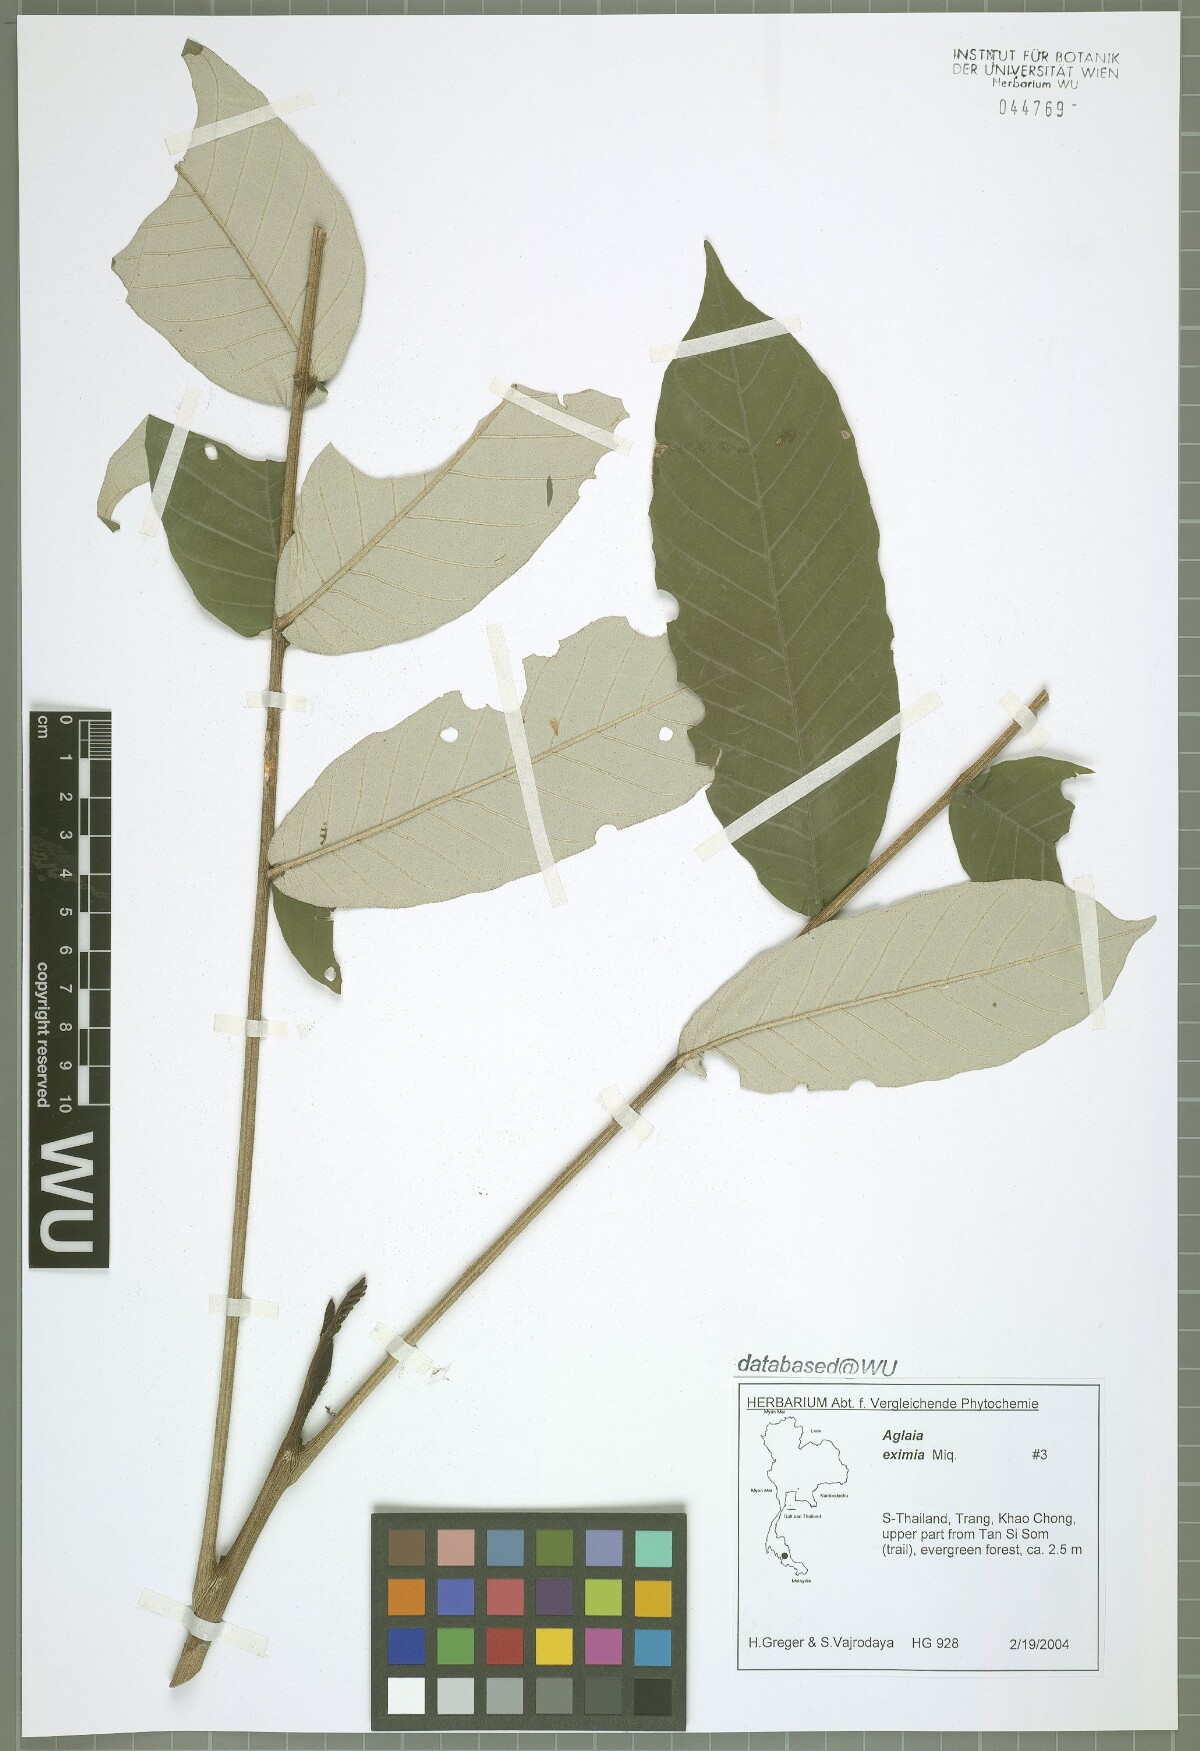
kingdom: Plantae
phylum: Tracheophyta
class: Magnoliopsida
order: Sapindales
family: Meliaceae
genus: Aglaia
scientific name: Aglaia eximia
